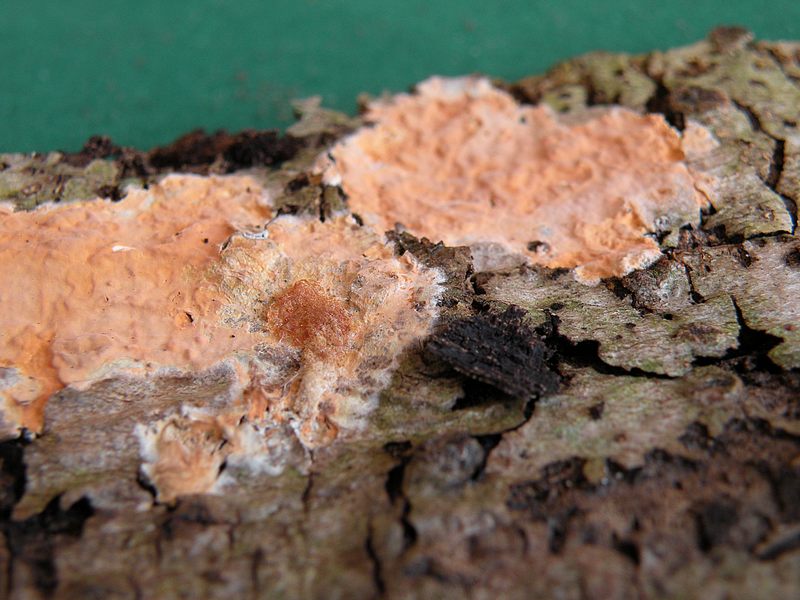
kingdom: Fungi
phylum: Basidiomycota
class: Agaricomycetes
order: Russulales
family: Peniophoraceae
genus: Peniophora
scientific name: Peniophora incarnata
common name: laksefarvet voksskind
